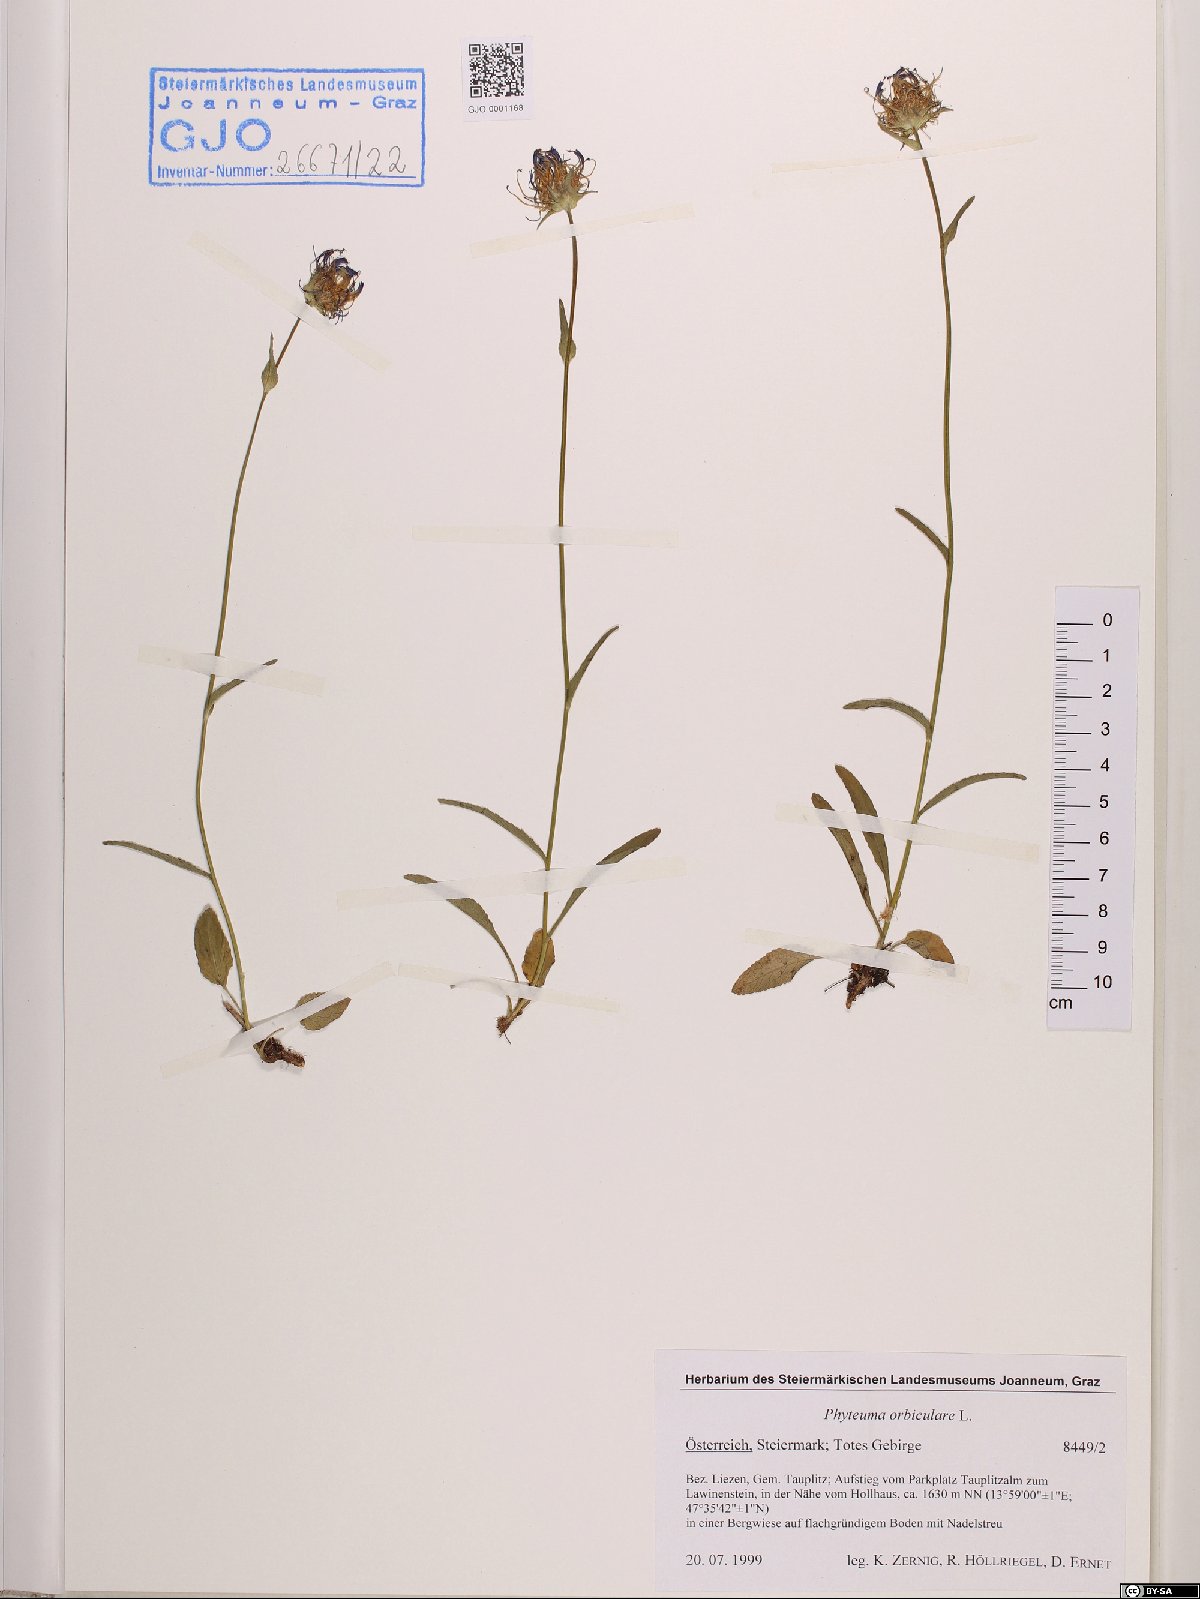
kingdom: Plantae
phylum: Tracheophyta
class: Magnoliopsida
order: Asterales
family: Campanulaceae
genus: Phyteuma
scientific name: Phyteuma orbiculare
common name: Round-headed rampion
